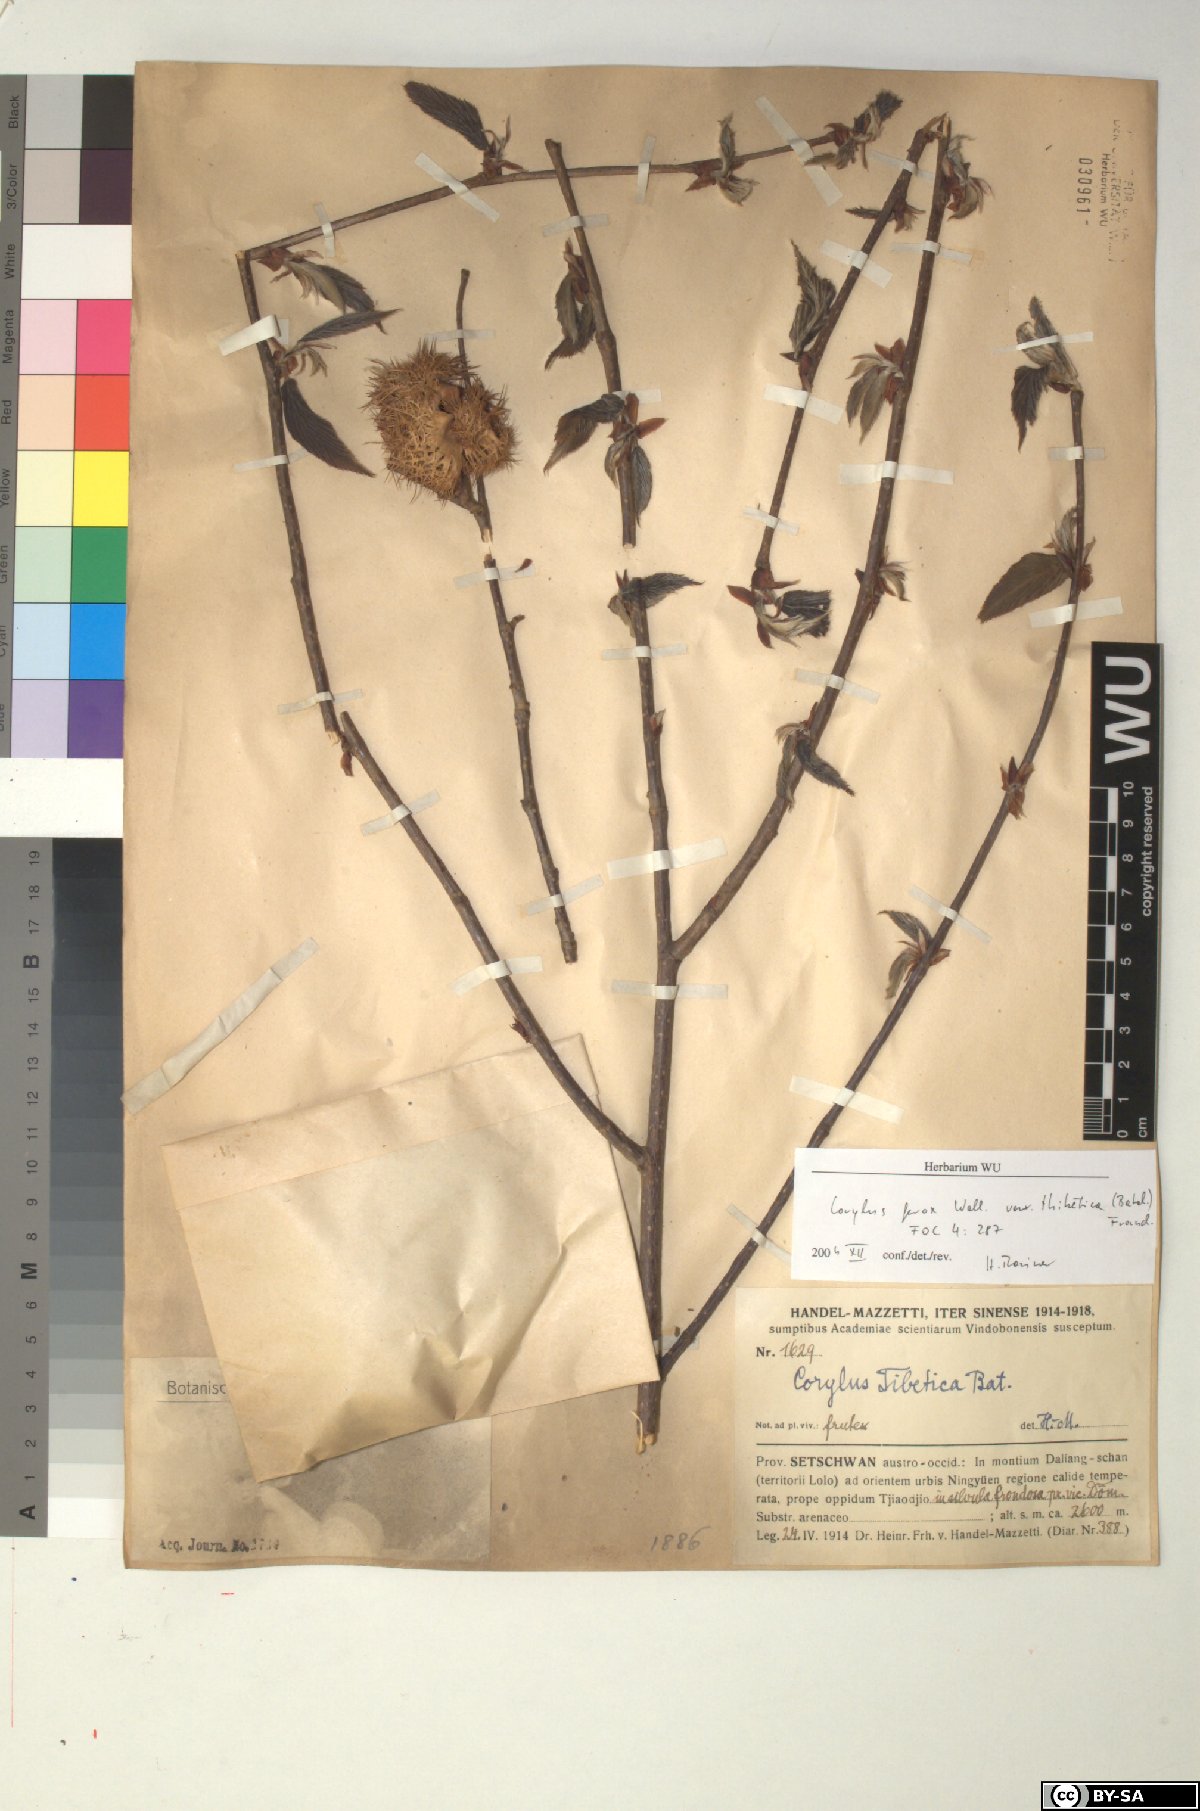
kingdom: Plantae
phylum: Tracheophyta
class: Magnoliopsida
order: Fagales
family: Betulaceae
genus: Corylus
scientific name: Corylus ferox
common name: Himalayan hazel
